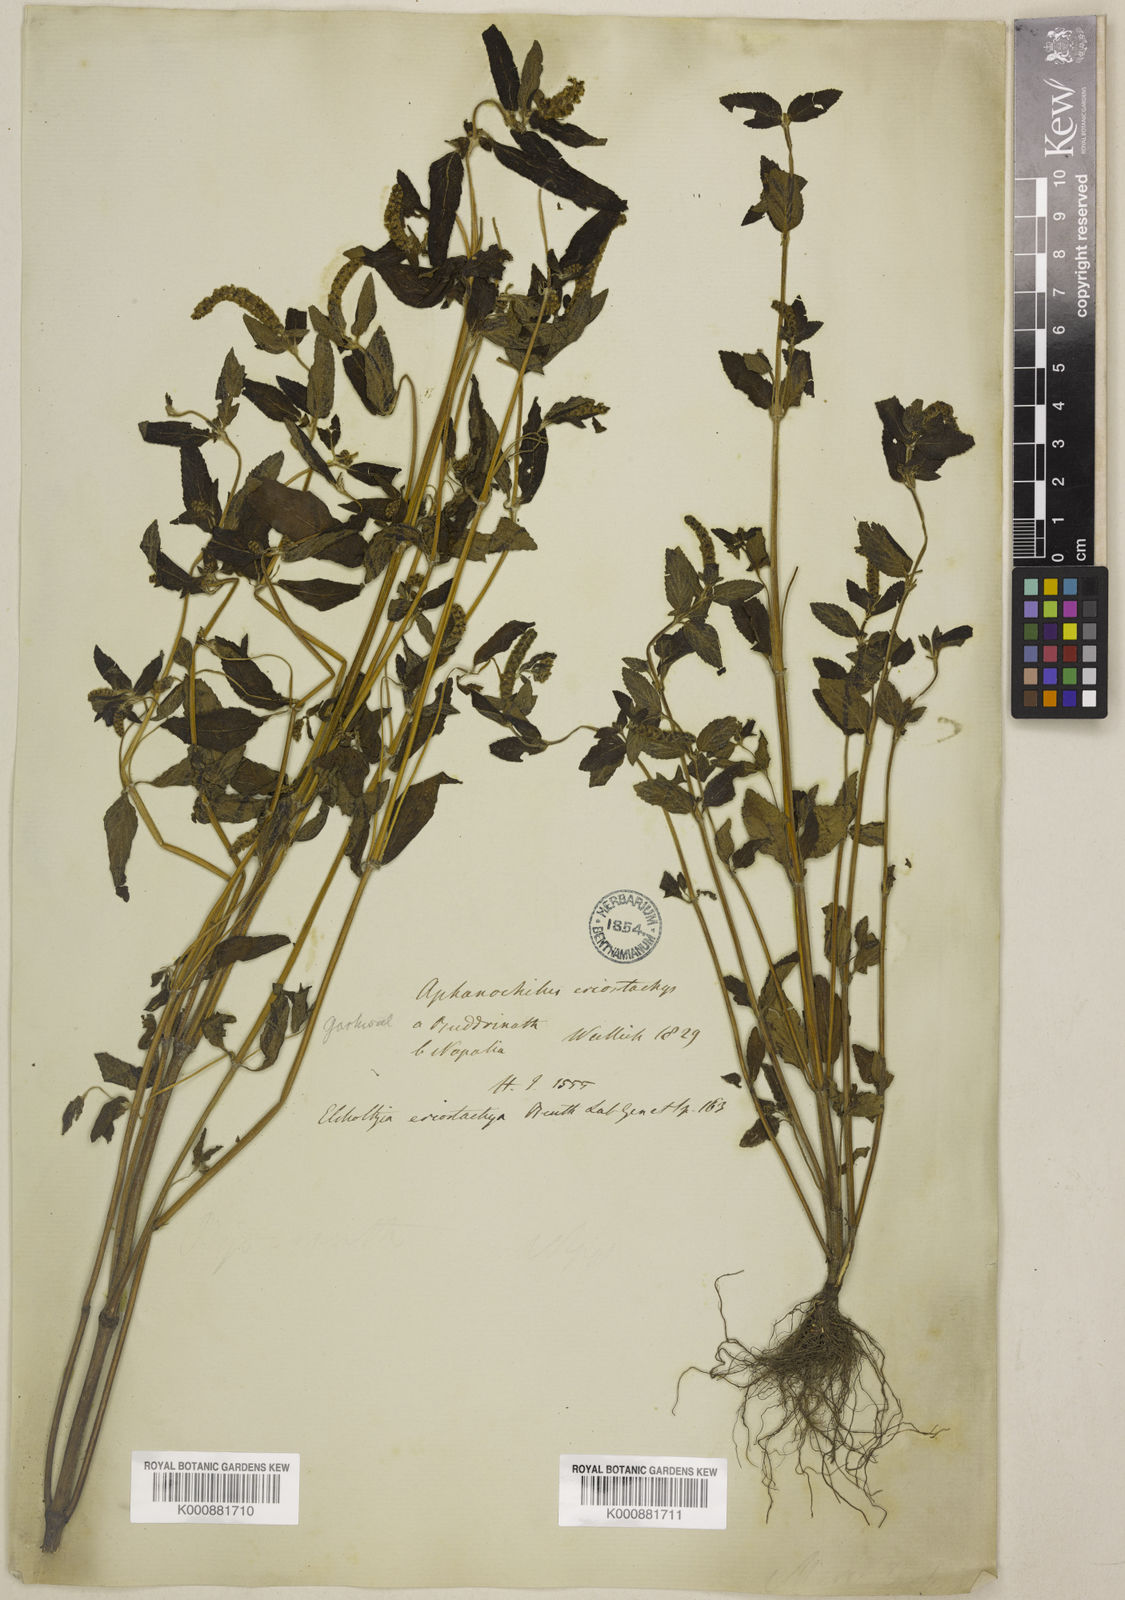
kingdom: Plantae
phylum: Tracheophyta
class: Magnoliopsida
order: Lamiales
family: Lamiaceae
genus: Elsholtzia
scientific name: Elsholtzia eriostachya
